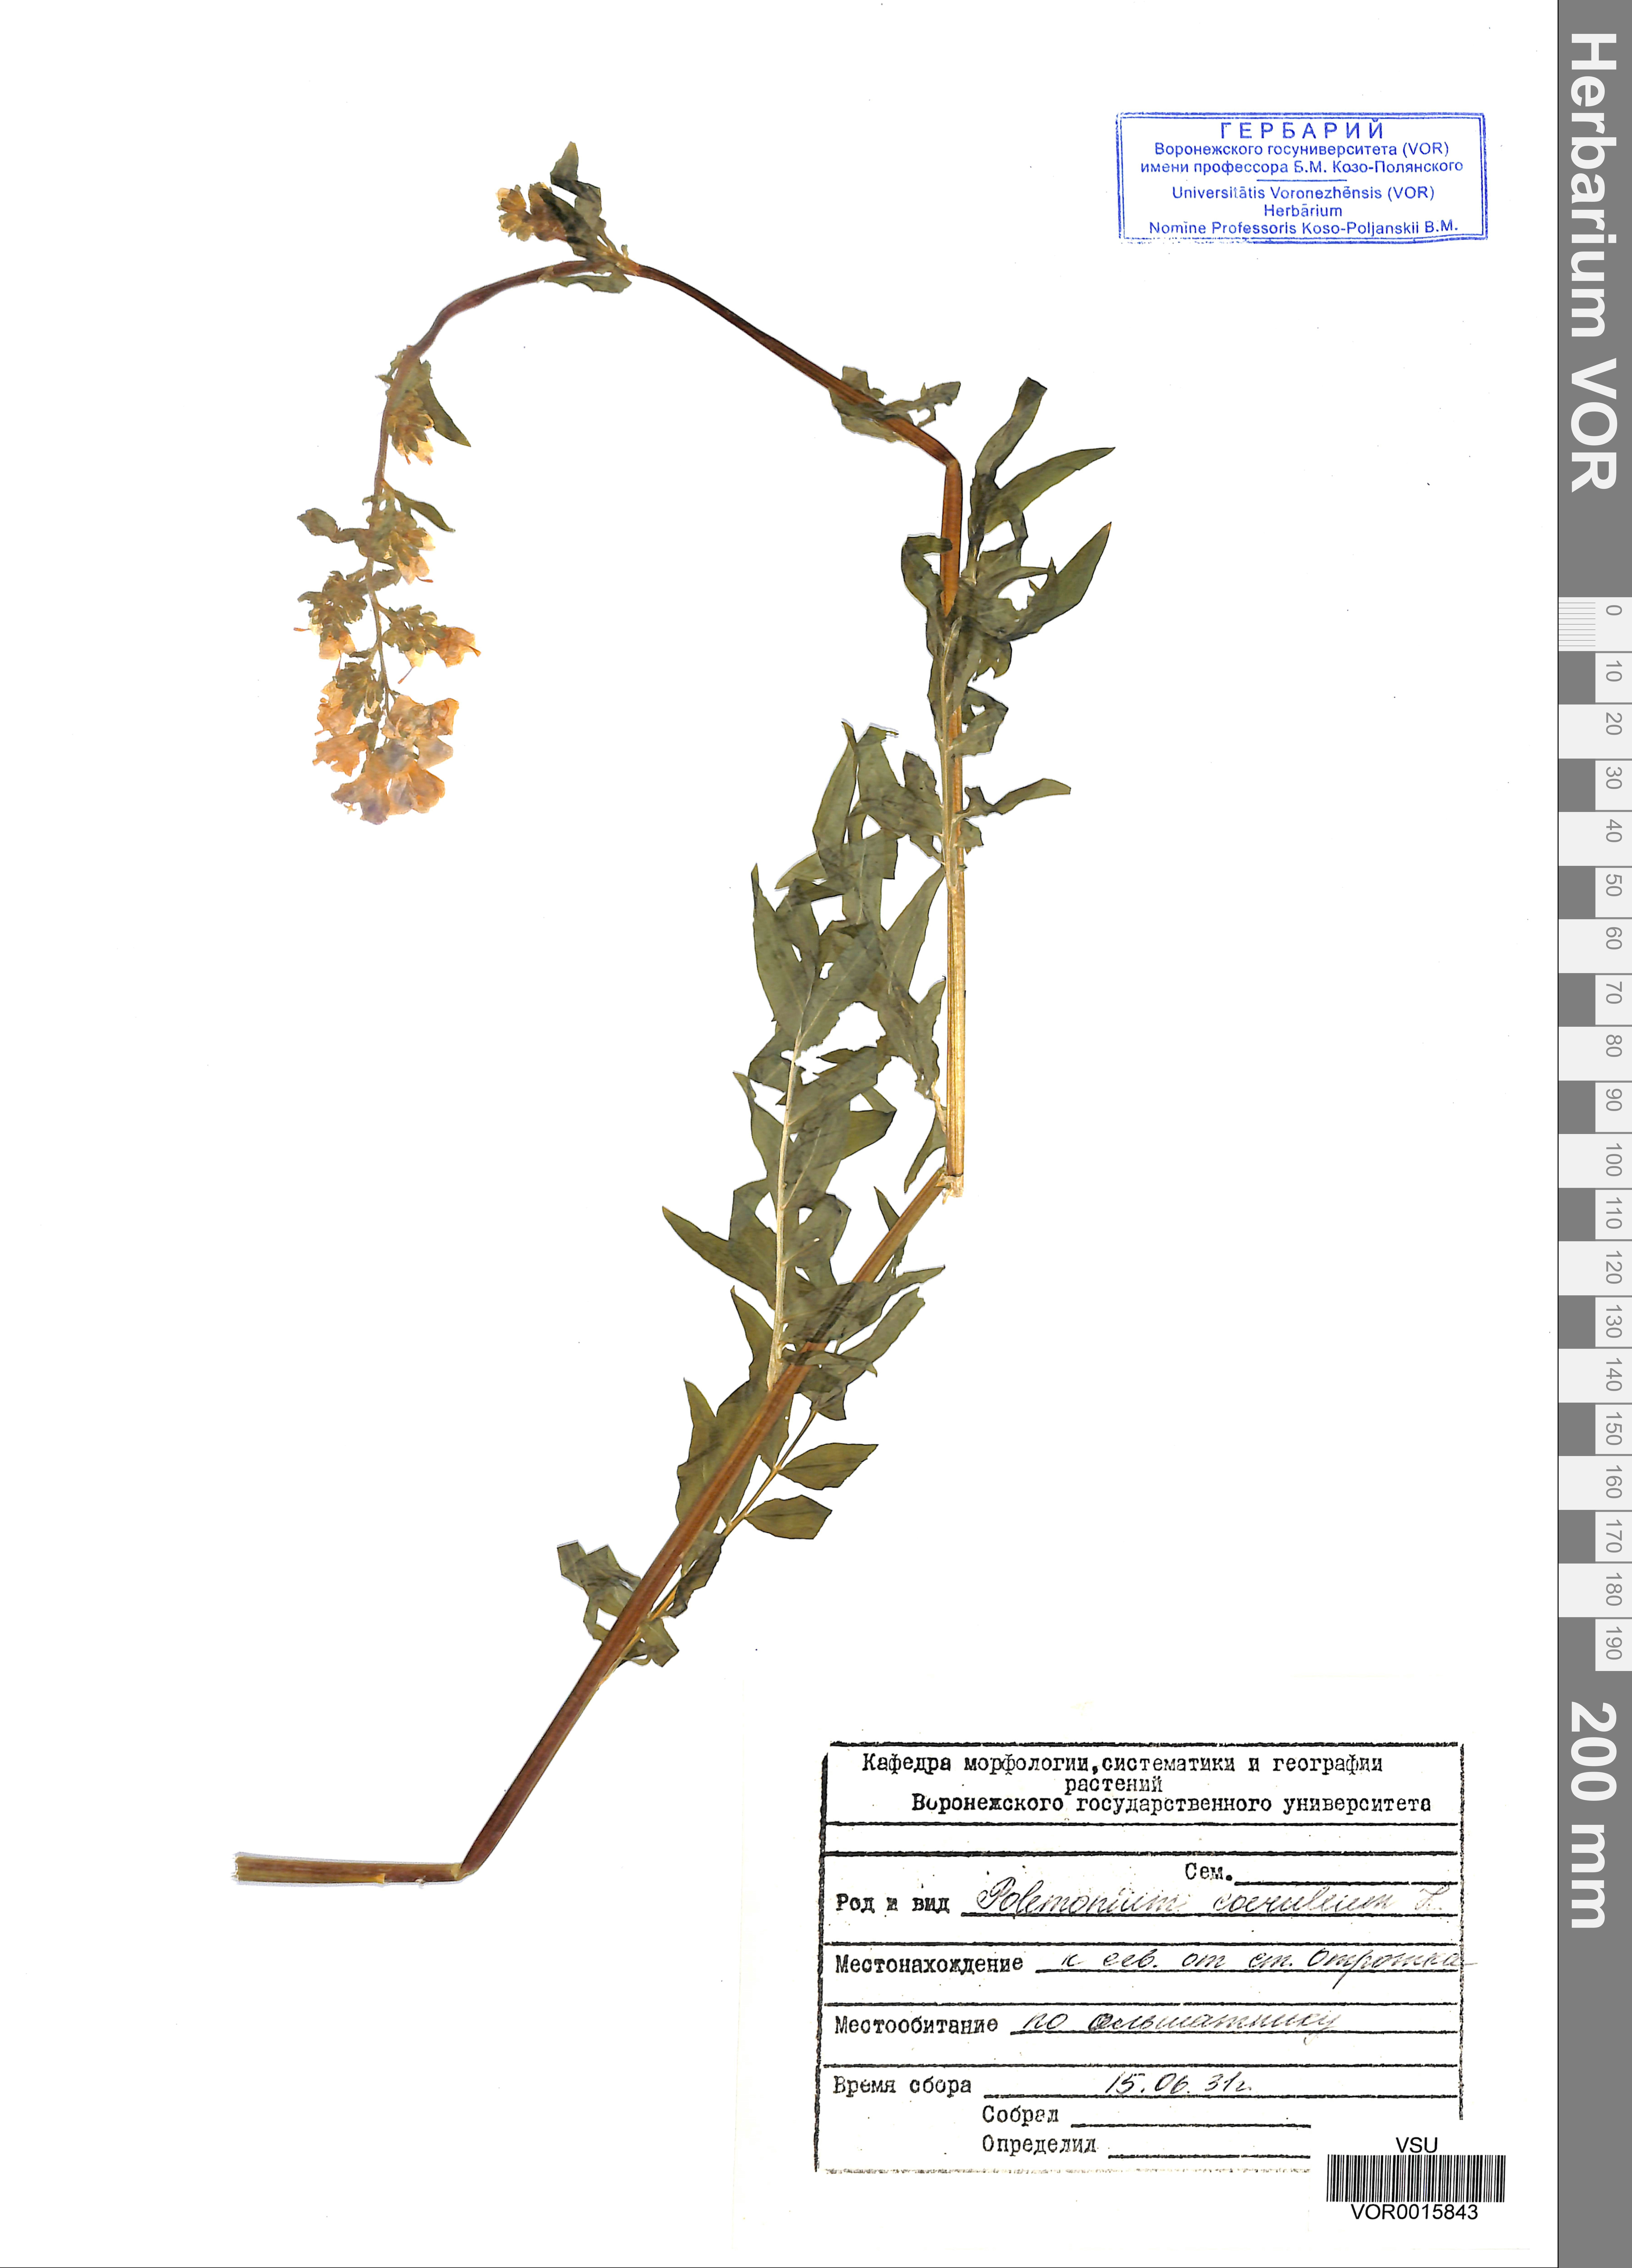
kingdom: Plantae
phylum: Tracheophyta
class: Magnoliopsida
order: Ericales
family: Polemoniaceae
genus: Polemonium
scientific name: Polemonium caeruleum
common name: Jacob's-ladder
